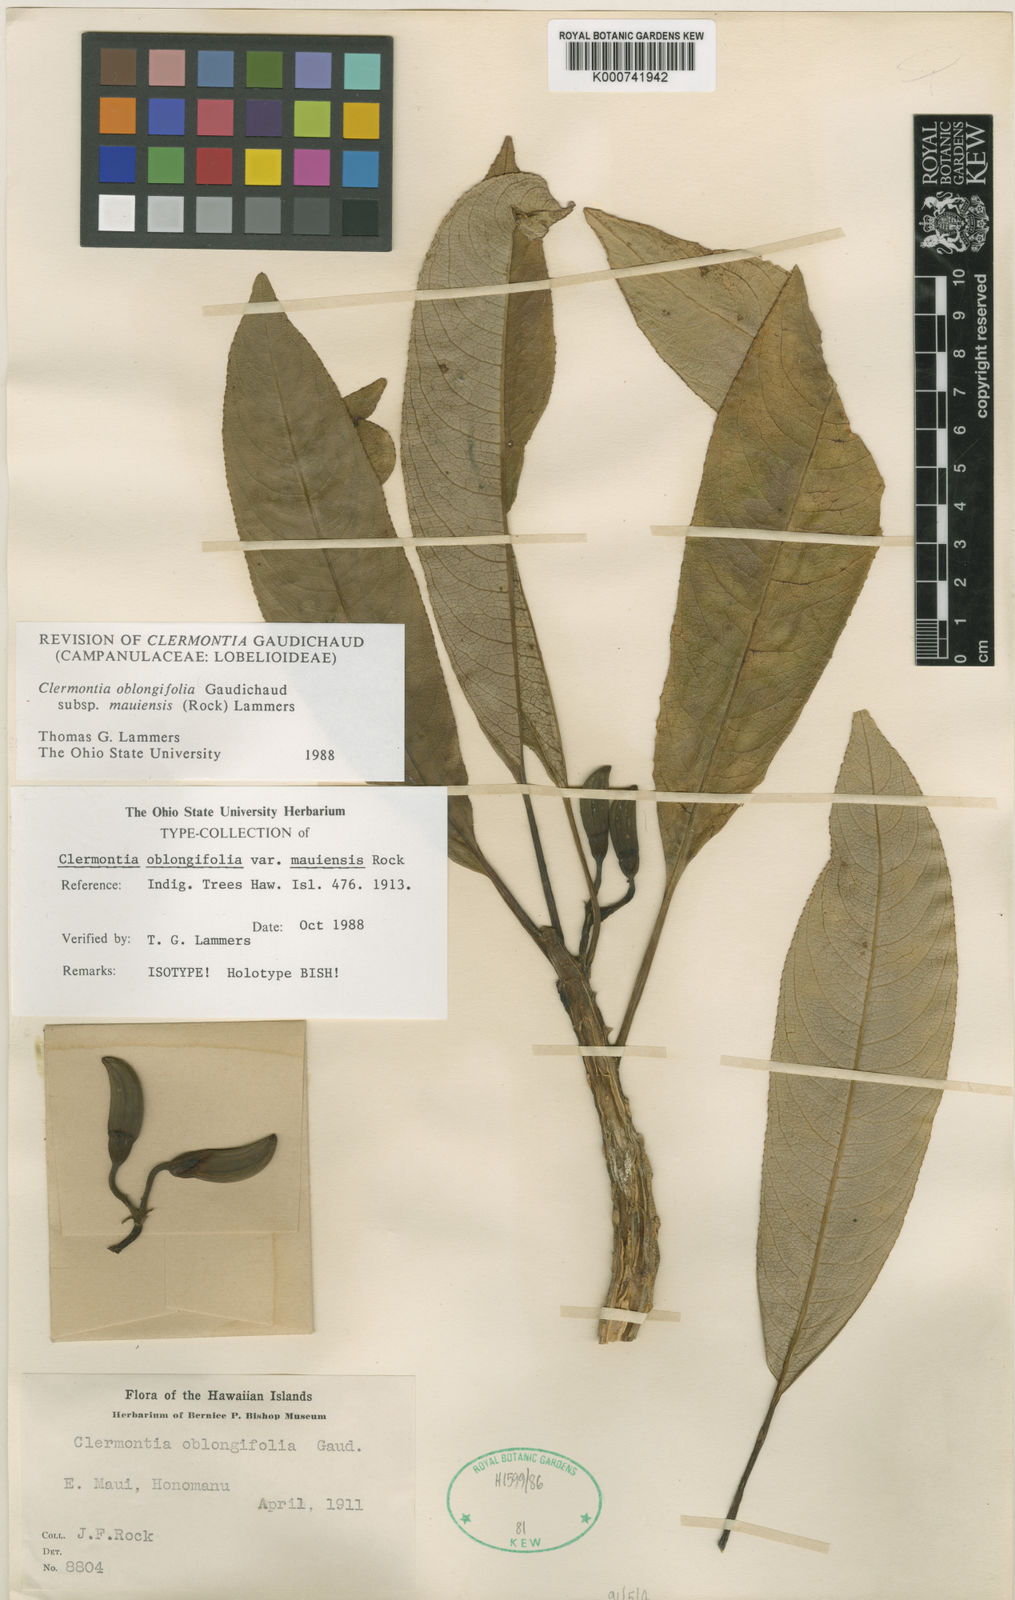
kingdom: Plantae
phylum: Tracheophyta
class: Magnoliopsida
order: Asterales
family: Campanulaceae
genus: Clermontia
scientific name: Clermontia oblongifolia
